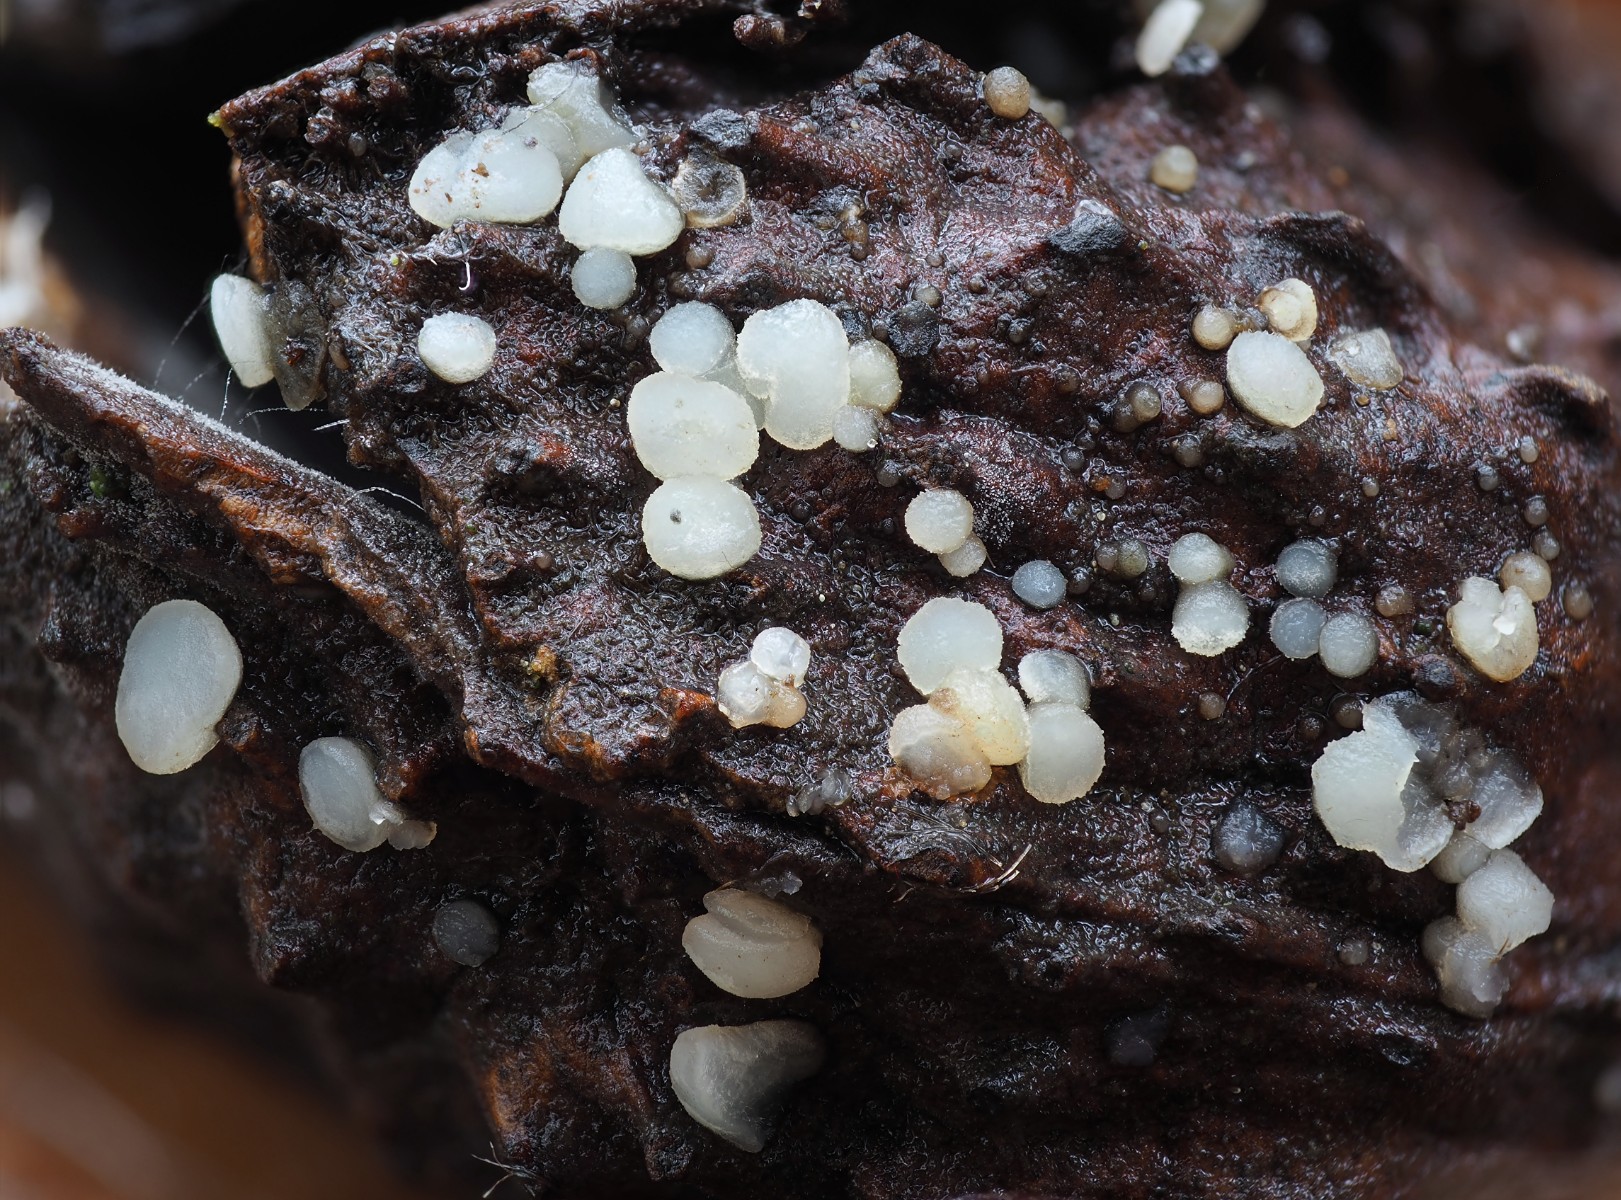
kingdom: Fungi
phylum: Ascomycota
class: Leotiomycetes
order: Helotiales
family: Helotiaceae
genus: Hymenoscyphus
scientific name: Hymenoscyphus fagineus
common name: vellugtende stilkskive
